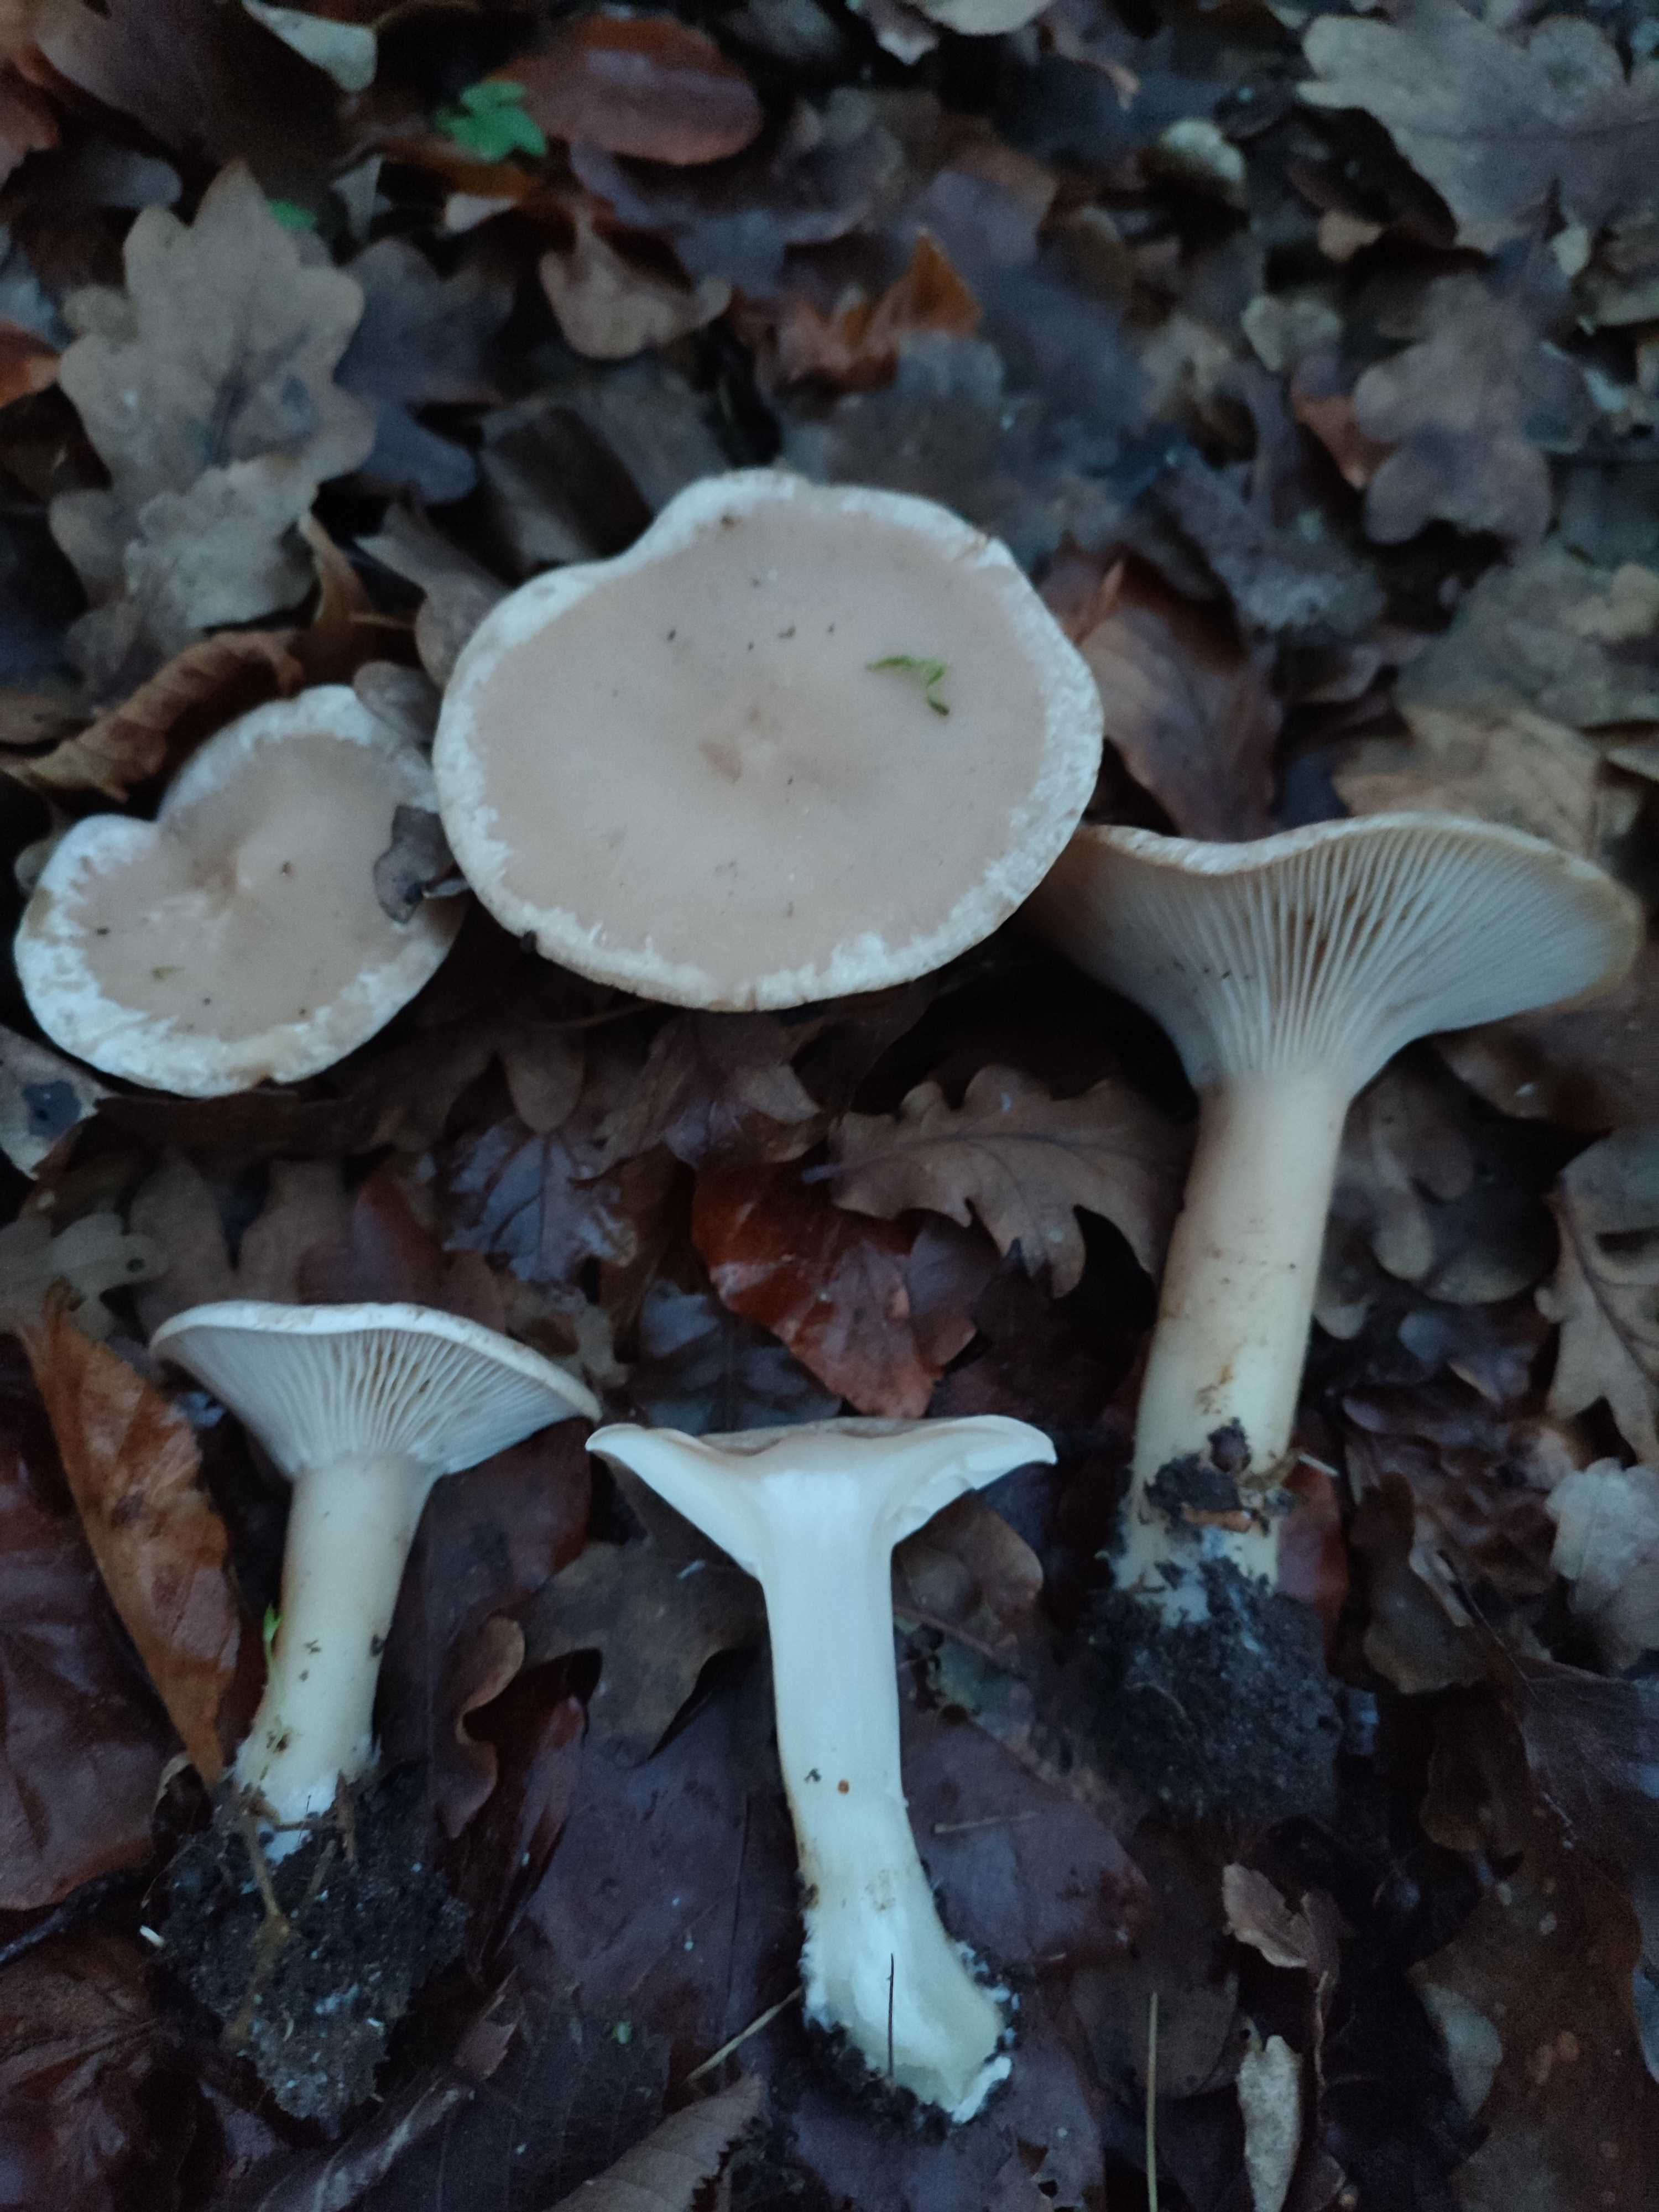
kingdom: Fungi
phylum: Basidiomycota
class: Agaricomycetes
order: Agaricales
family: Tricholomataceae
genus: Infundibulicybe
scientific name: Infundibulicybe geotropa
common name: stor tragthat
